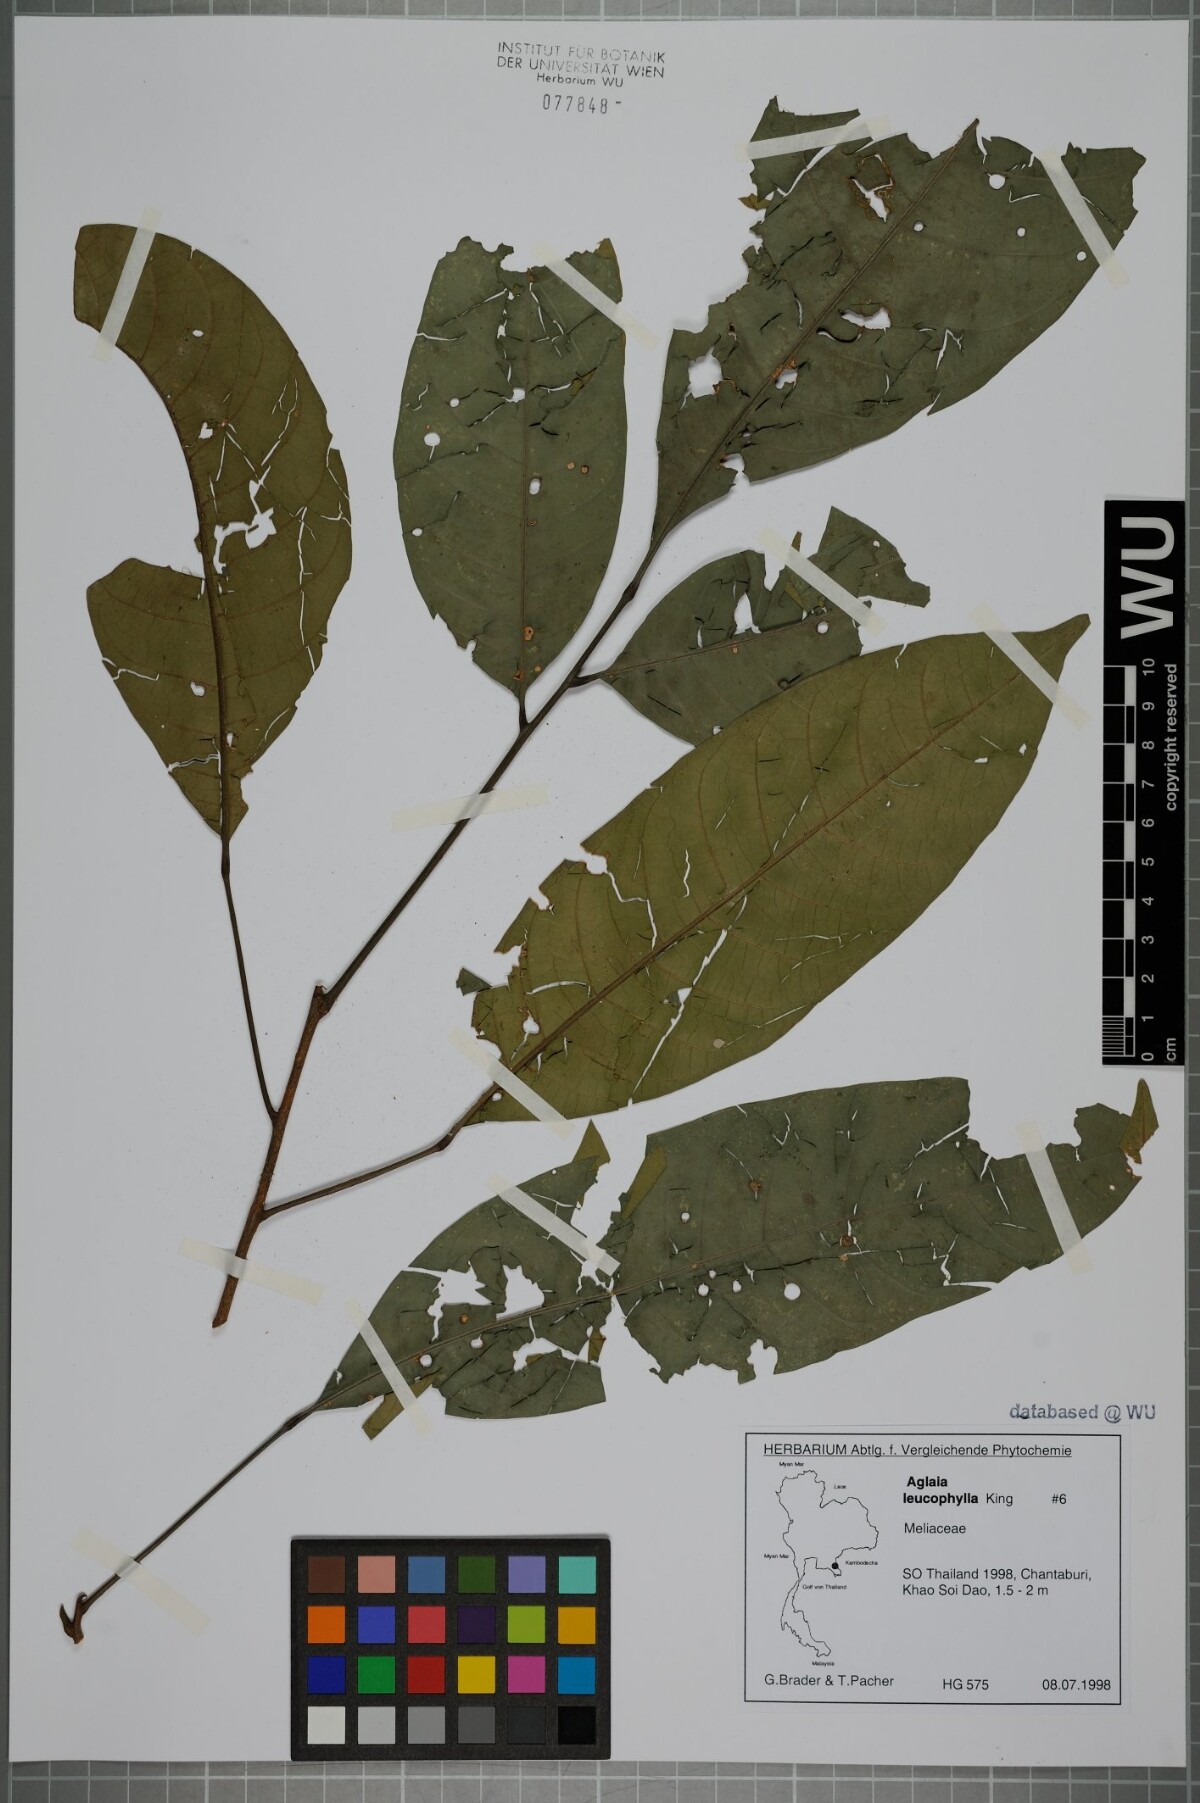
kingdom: Plantae
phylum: Tracheophyta
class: Magnoliopsida
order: Sapindales
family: Meliaceae
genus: Aglaia
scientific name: Aglaia leucophylla
